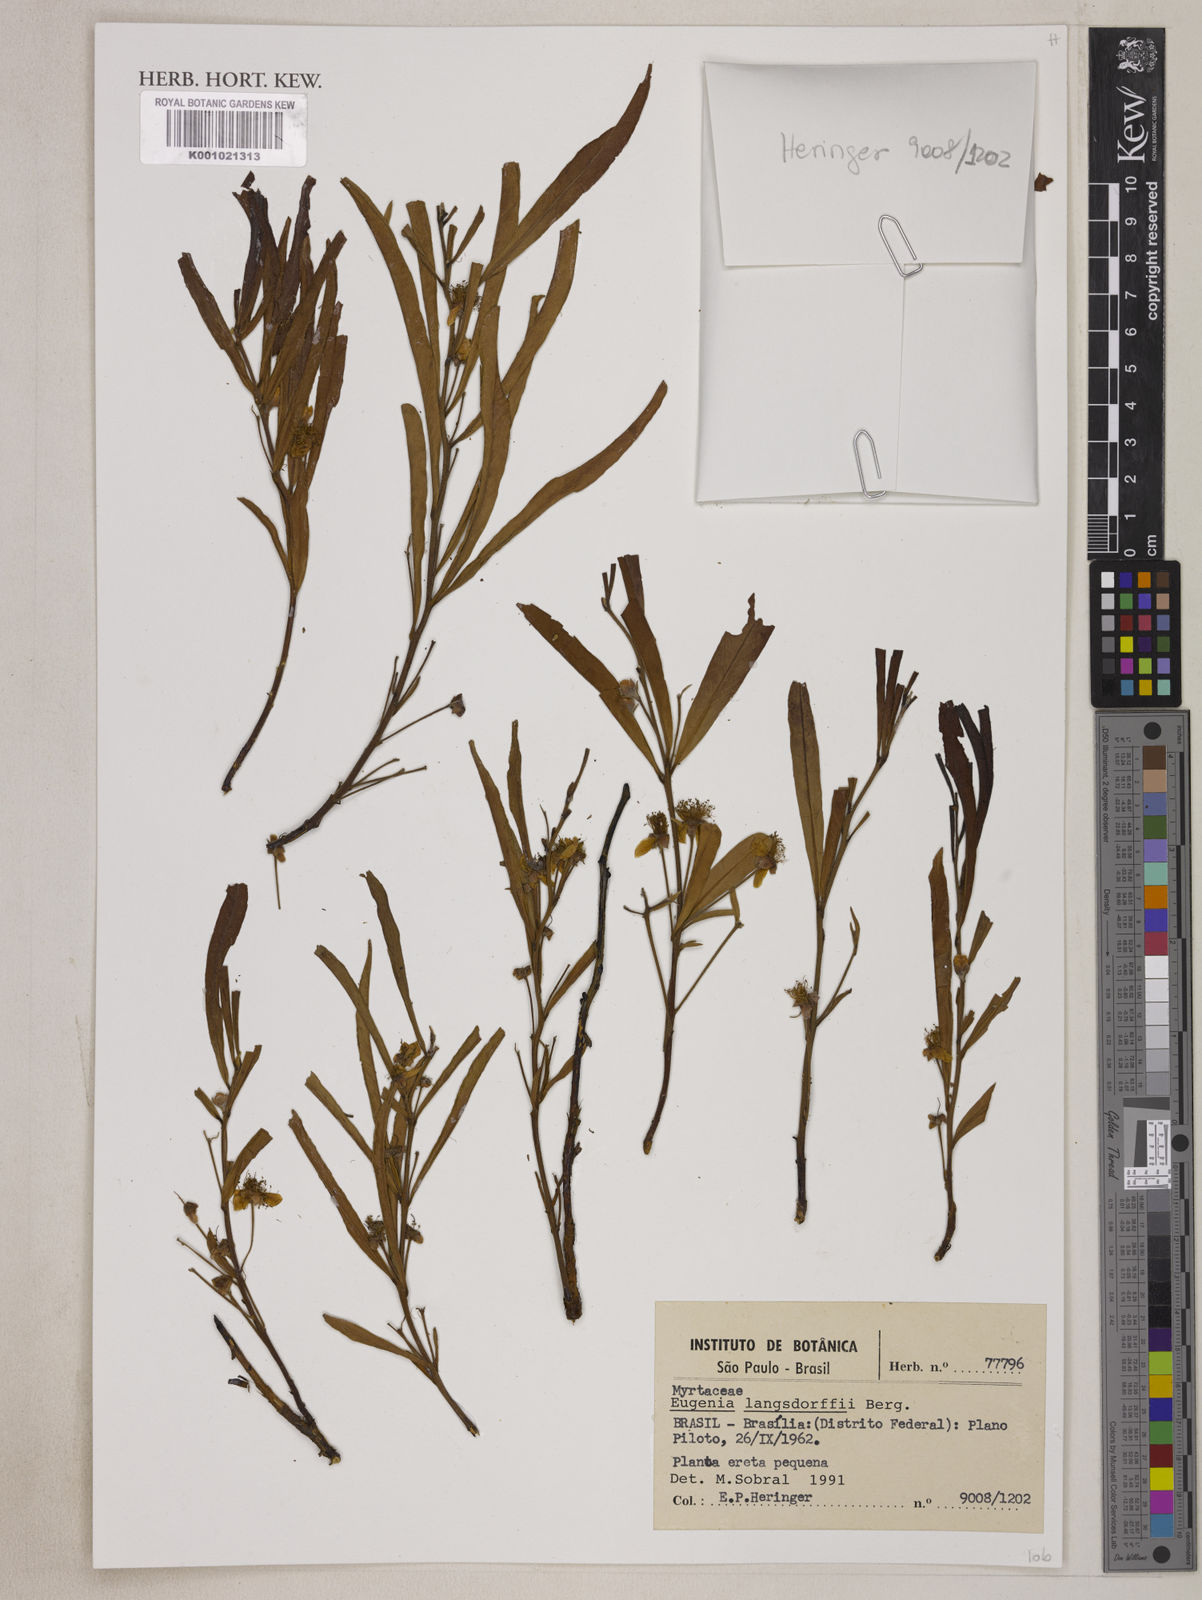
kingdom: Plantae
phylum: Tracheophyta
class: Magnoliopsida
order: Myrtales
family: Myrtaceae
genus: Eugenia
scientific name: Eugenia langsdorffii
